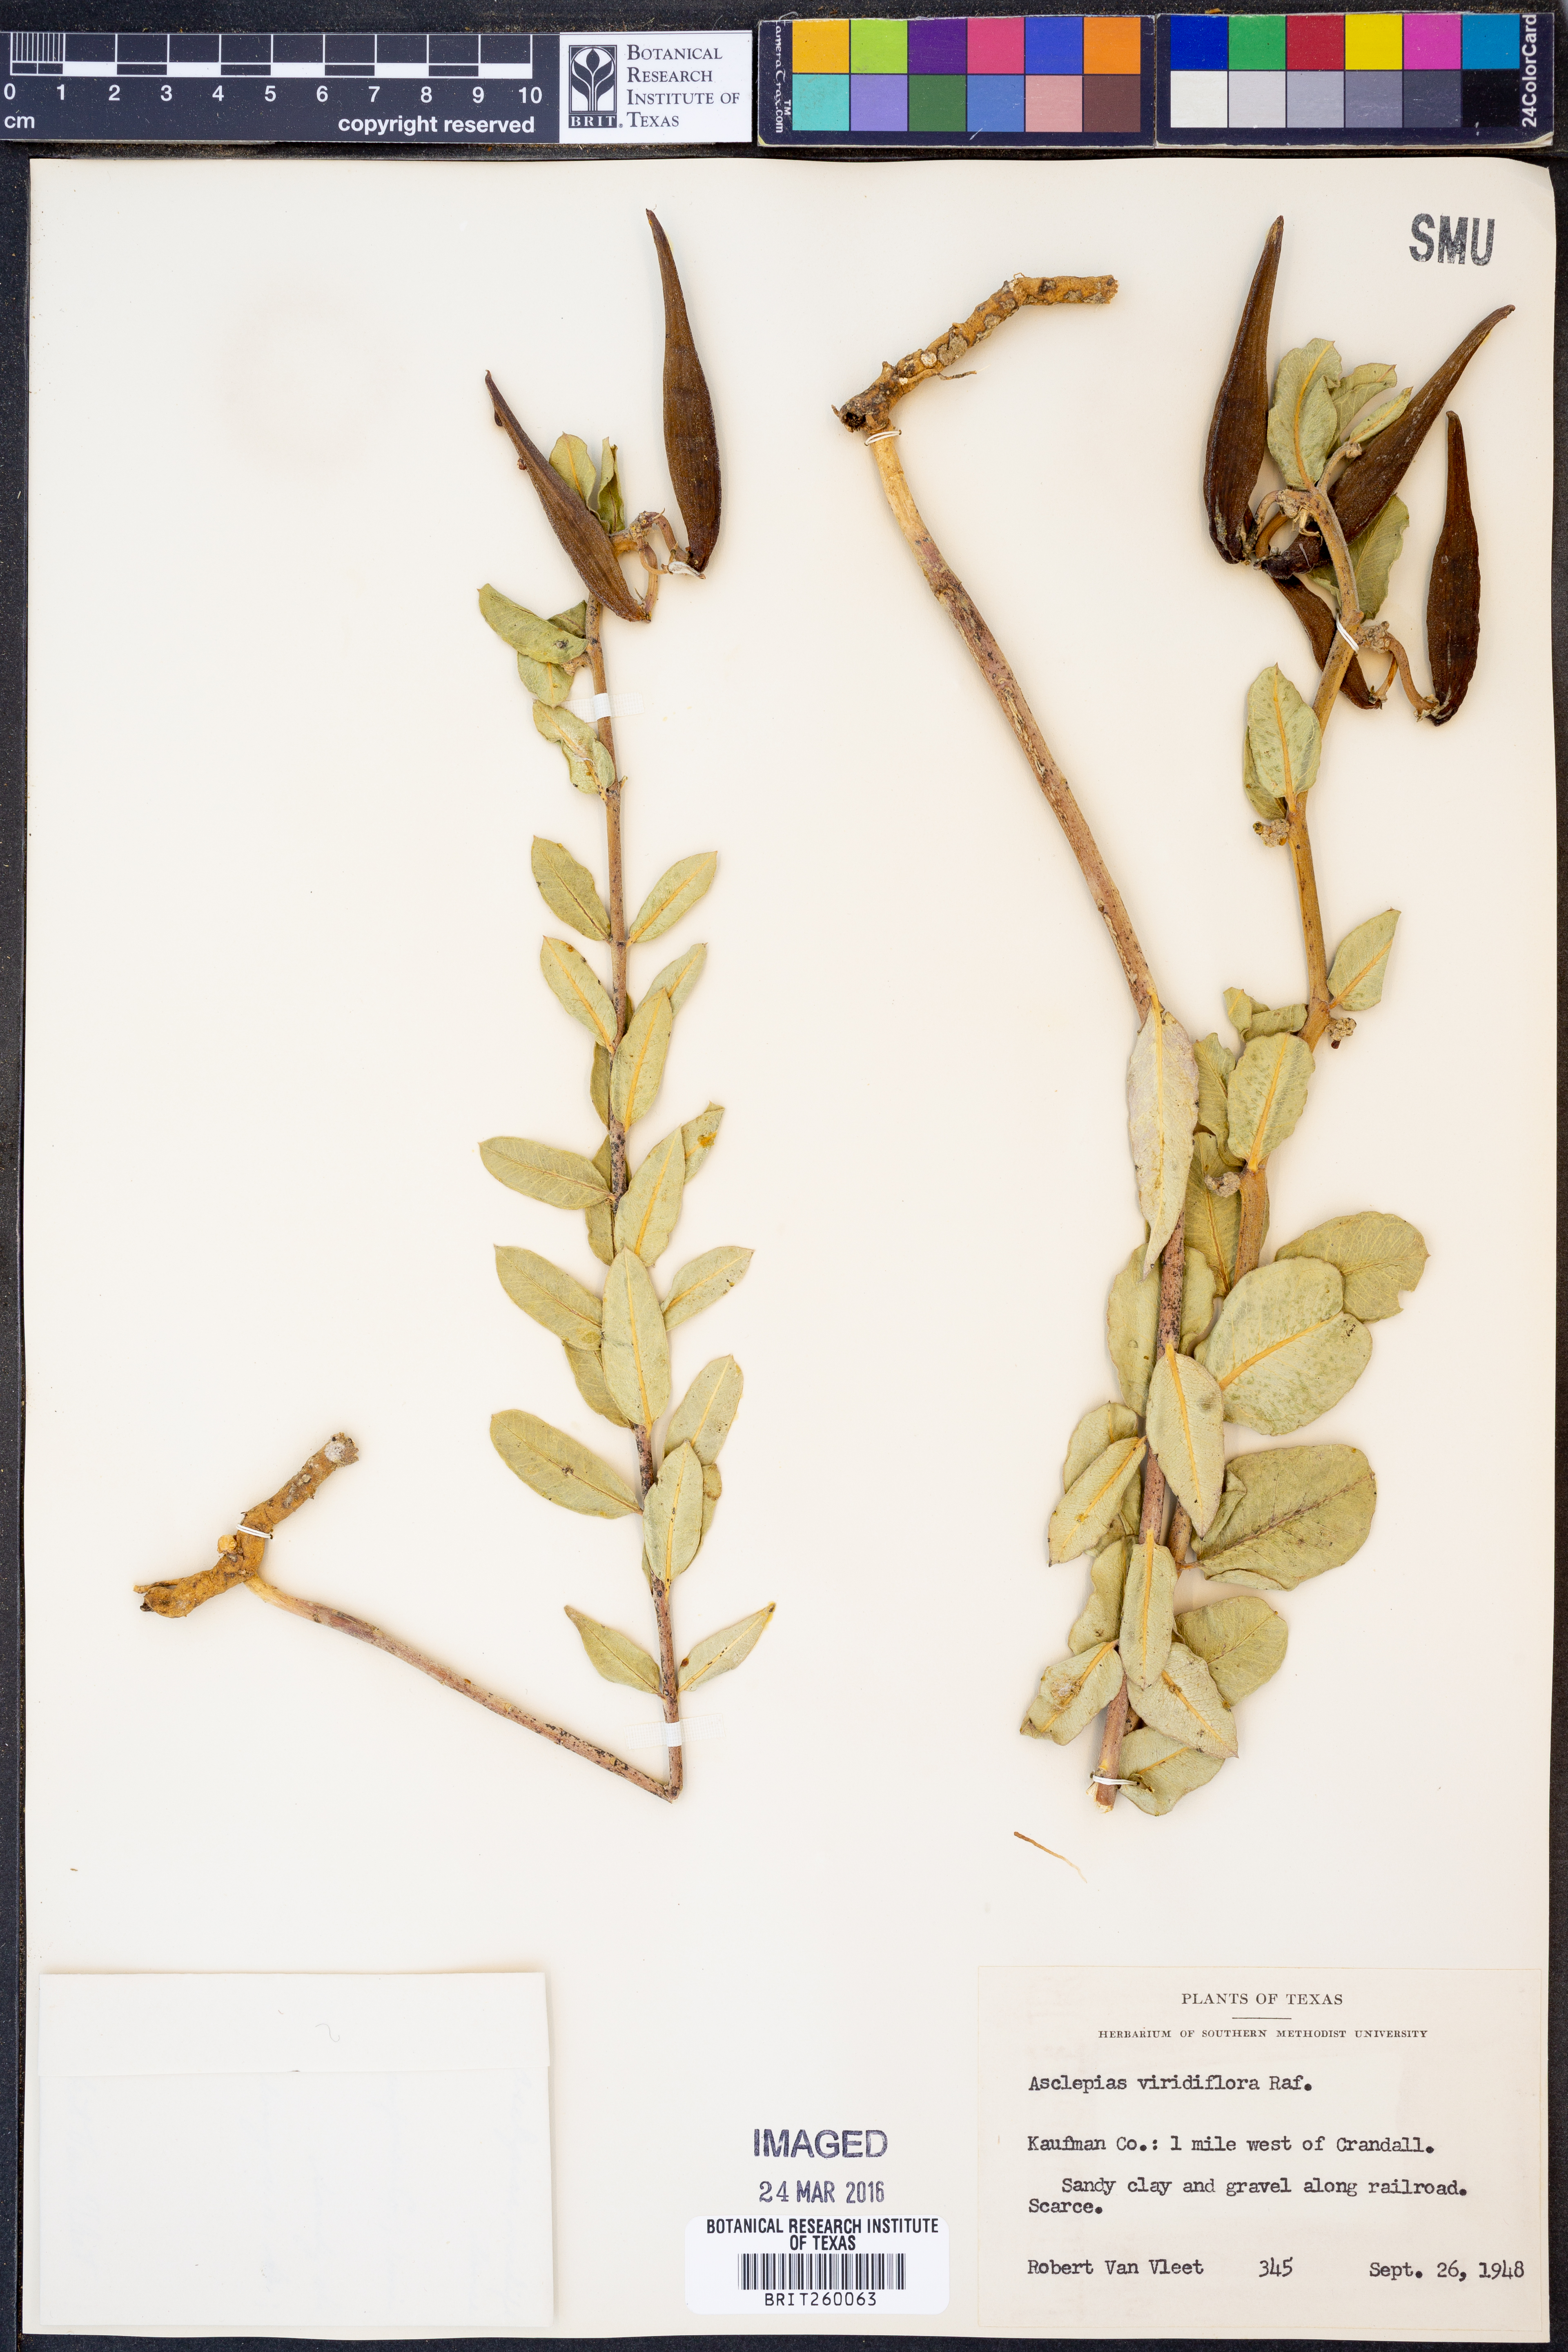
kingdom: Plantae
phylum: Tracheophyta
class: Magnoliopsida
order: Gentianales
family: Apocynaceae
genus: Asclepias
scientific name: Asclepias viridiflora
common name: Green comet milkweed
